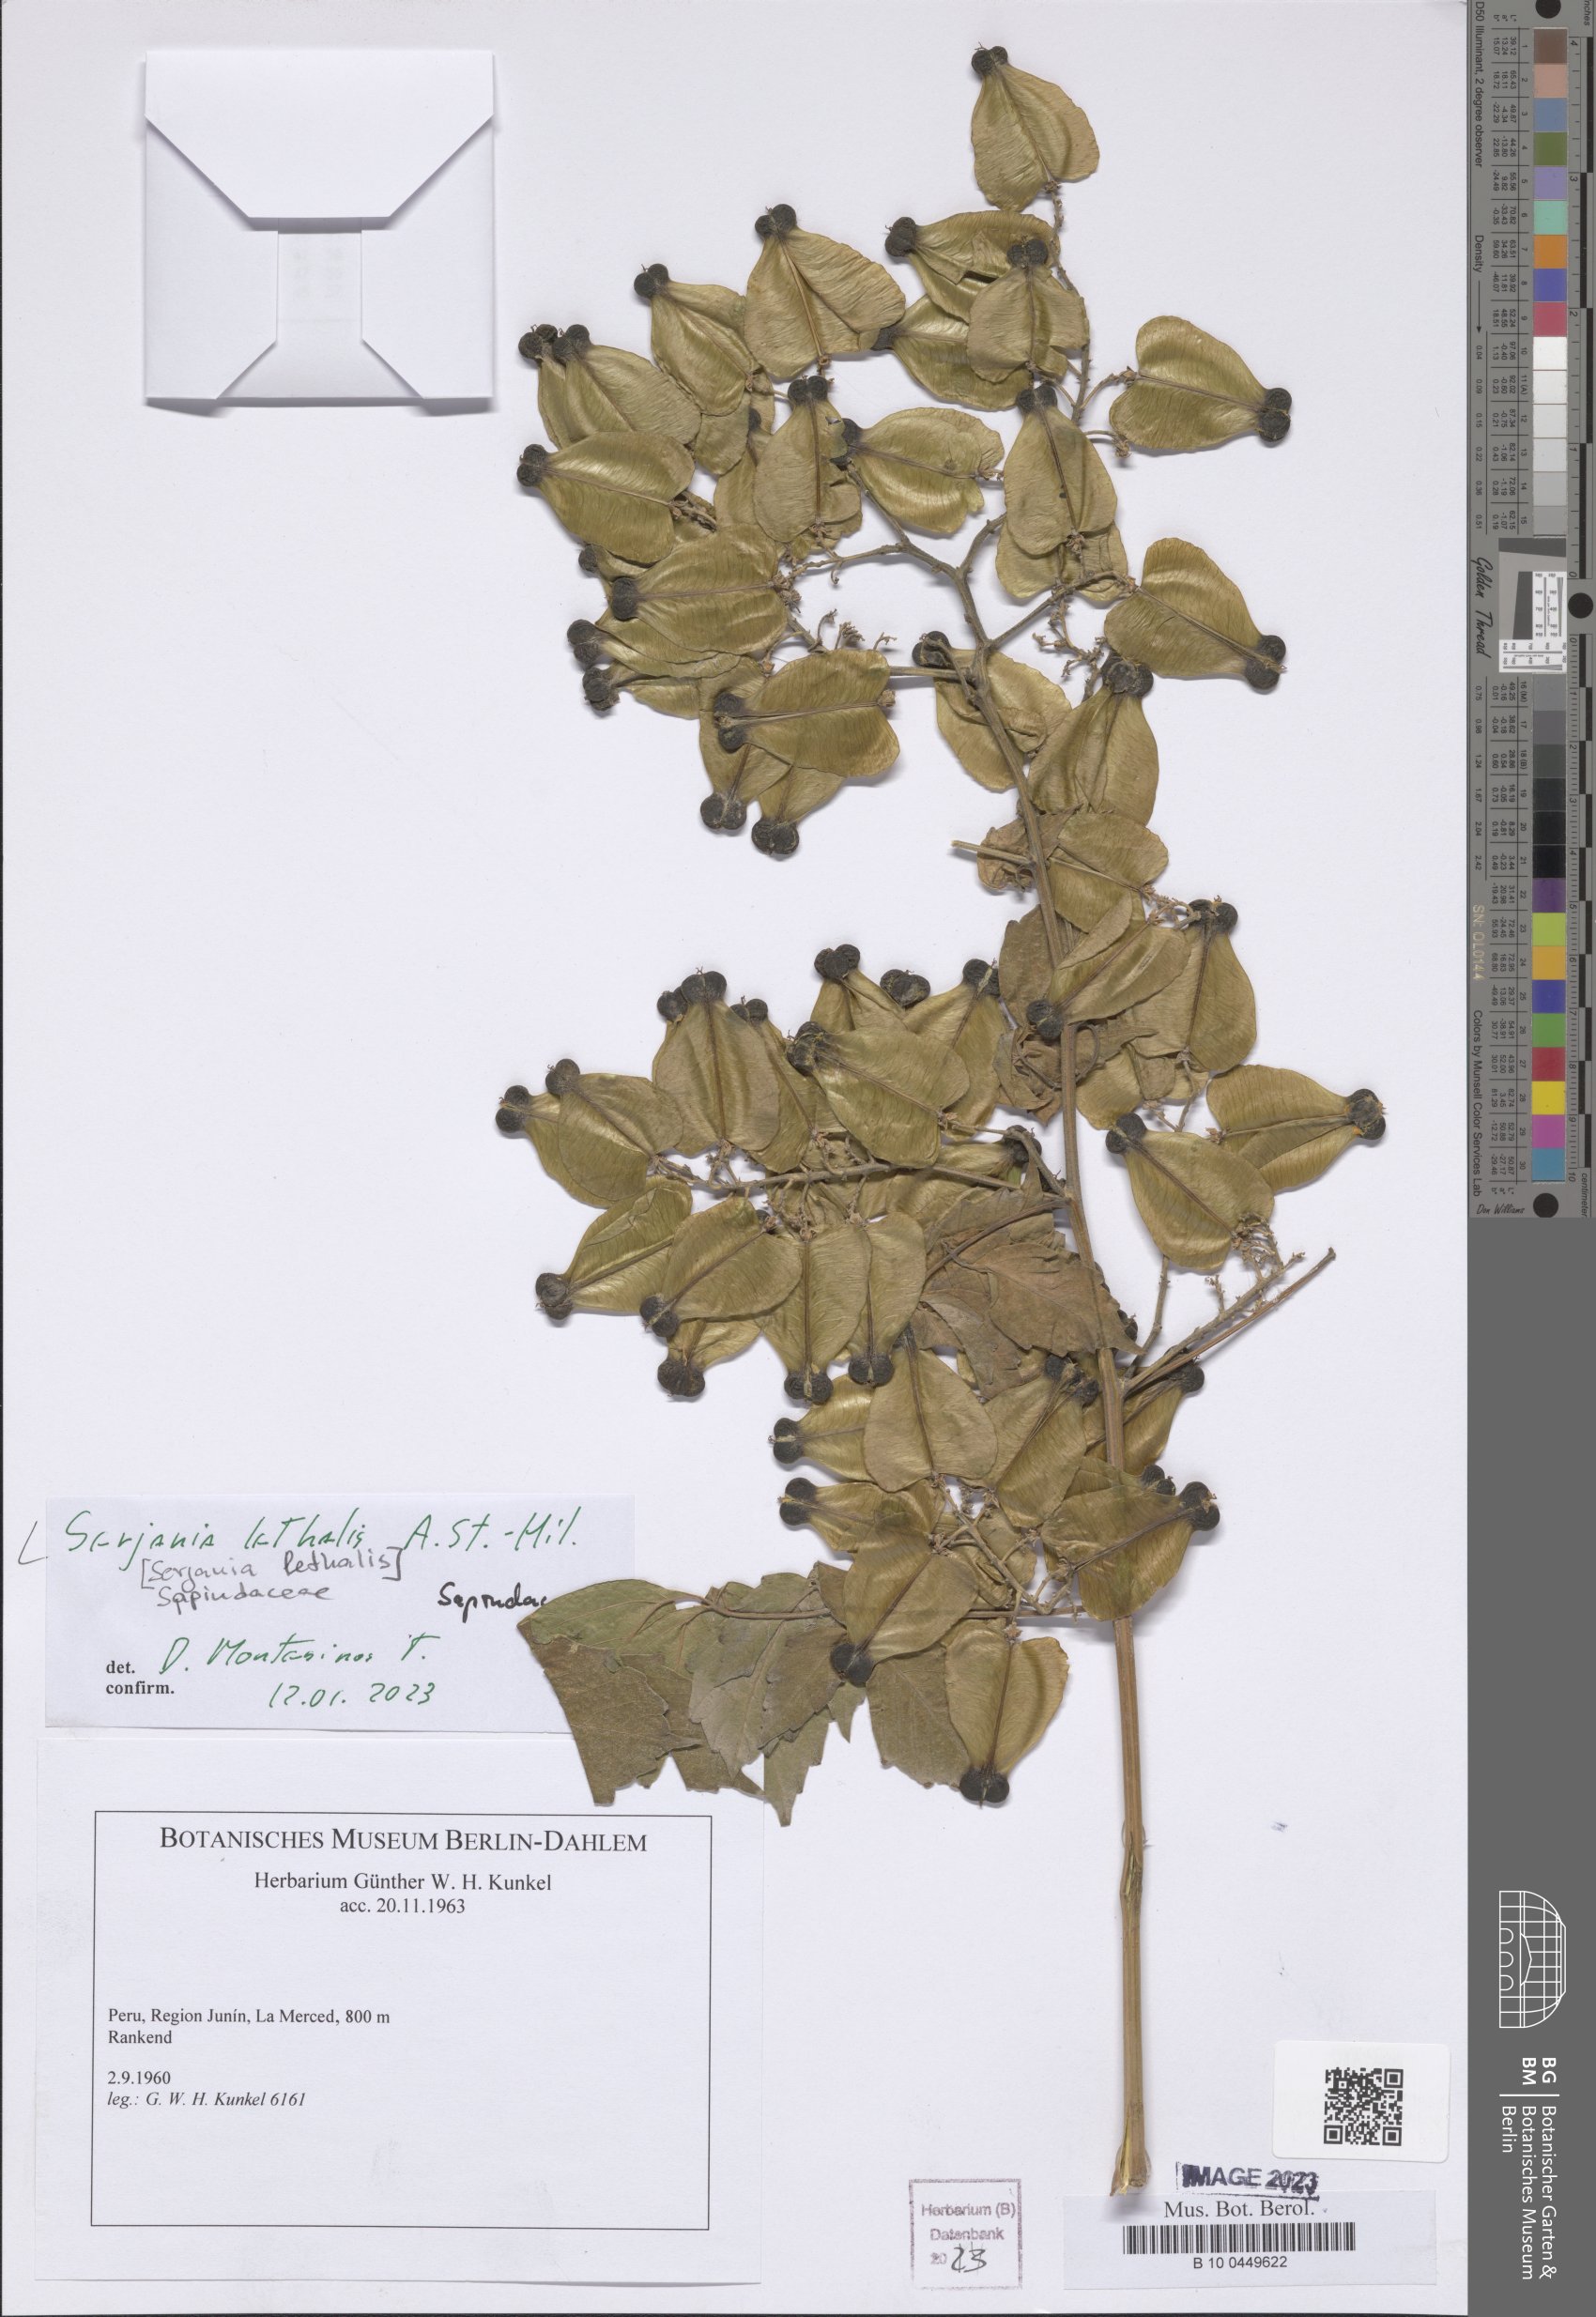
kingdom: Plantae
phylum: Tracheophyta
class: Magnoliopsida
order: Sapindales
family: Sapindaceae
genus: Serjania
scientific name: Serjania lethalis
